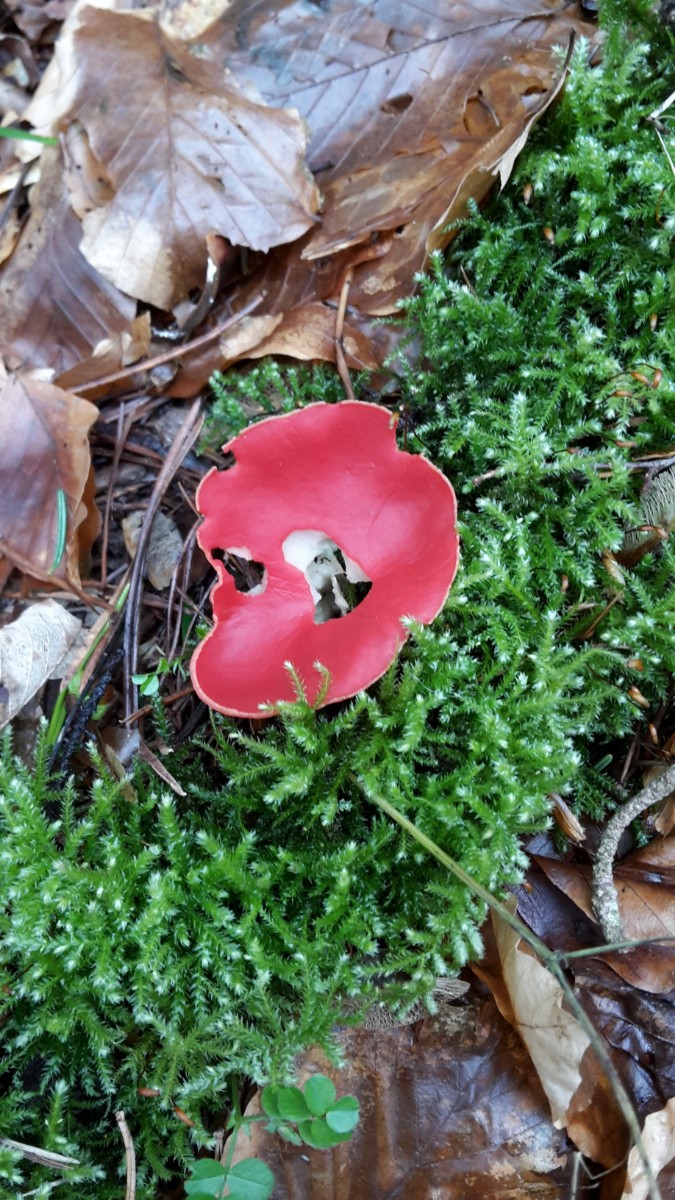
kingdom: Fungi
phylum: Ascomycota
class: Pezizomycetes
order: Pezizales
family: Sarcoscyphaceae
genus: Sarcoscypha
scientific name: Sarcoscypha austriaca
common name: krølhåret pragtbæger
